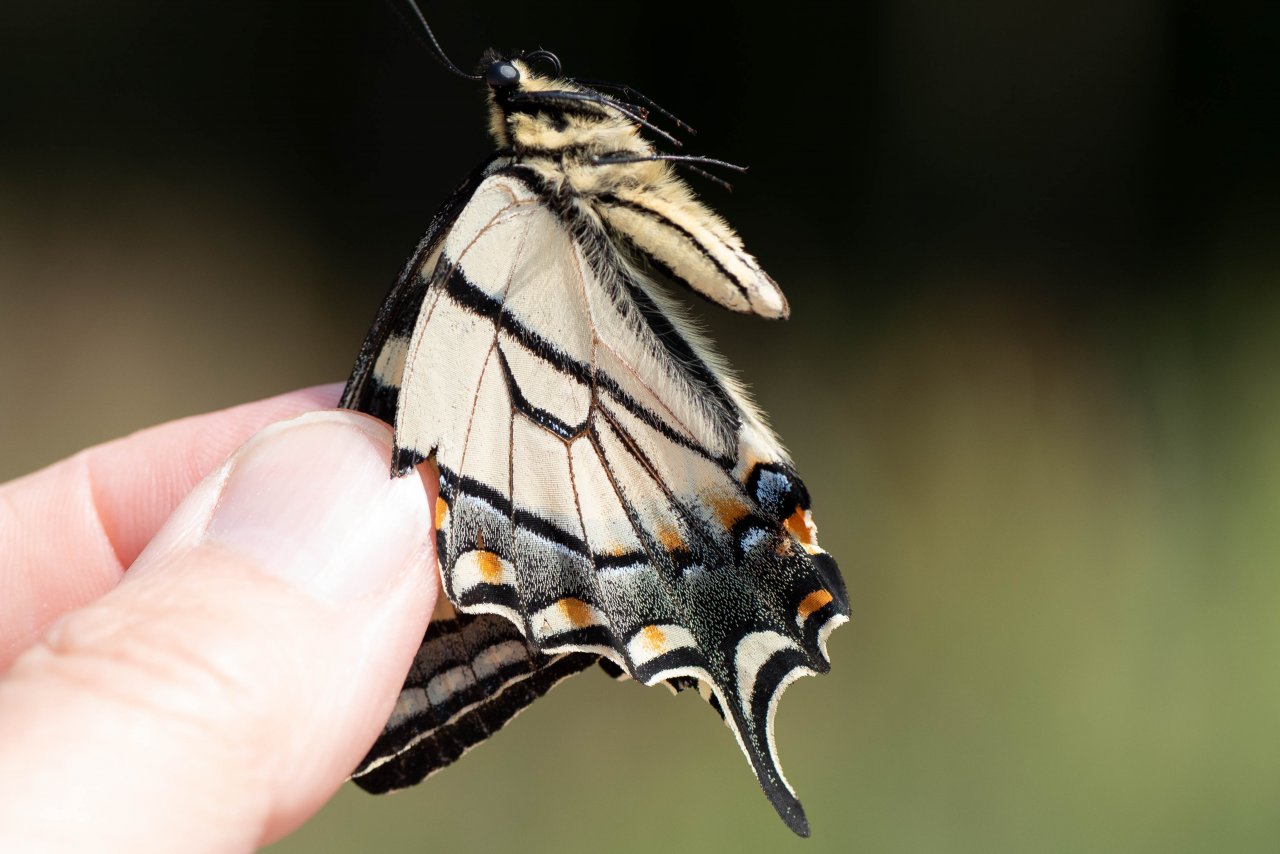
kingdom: Animalia
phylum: Arthropoda
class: Insecta
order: Lepidoptera
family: Papilionidae
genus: Pterourus
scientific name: Pterourus glaucus
